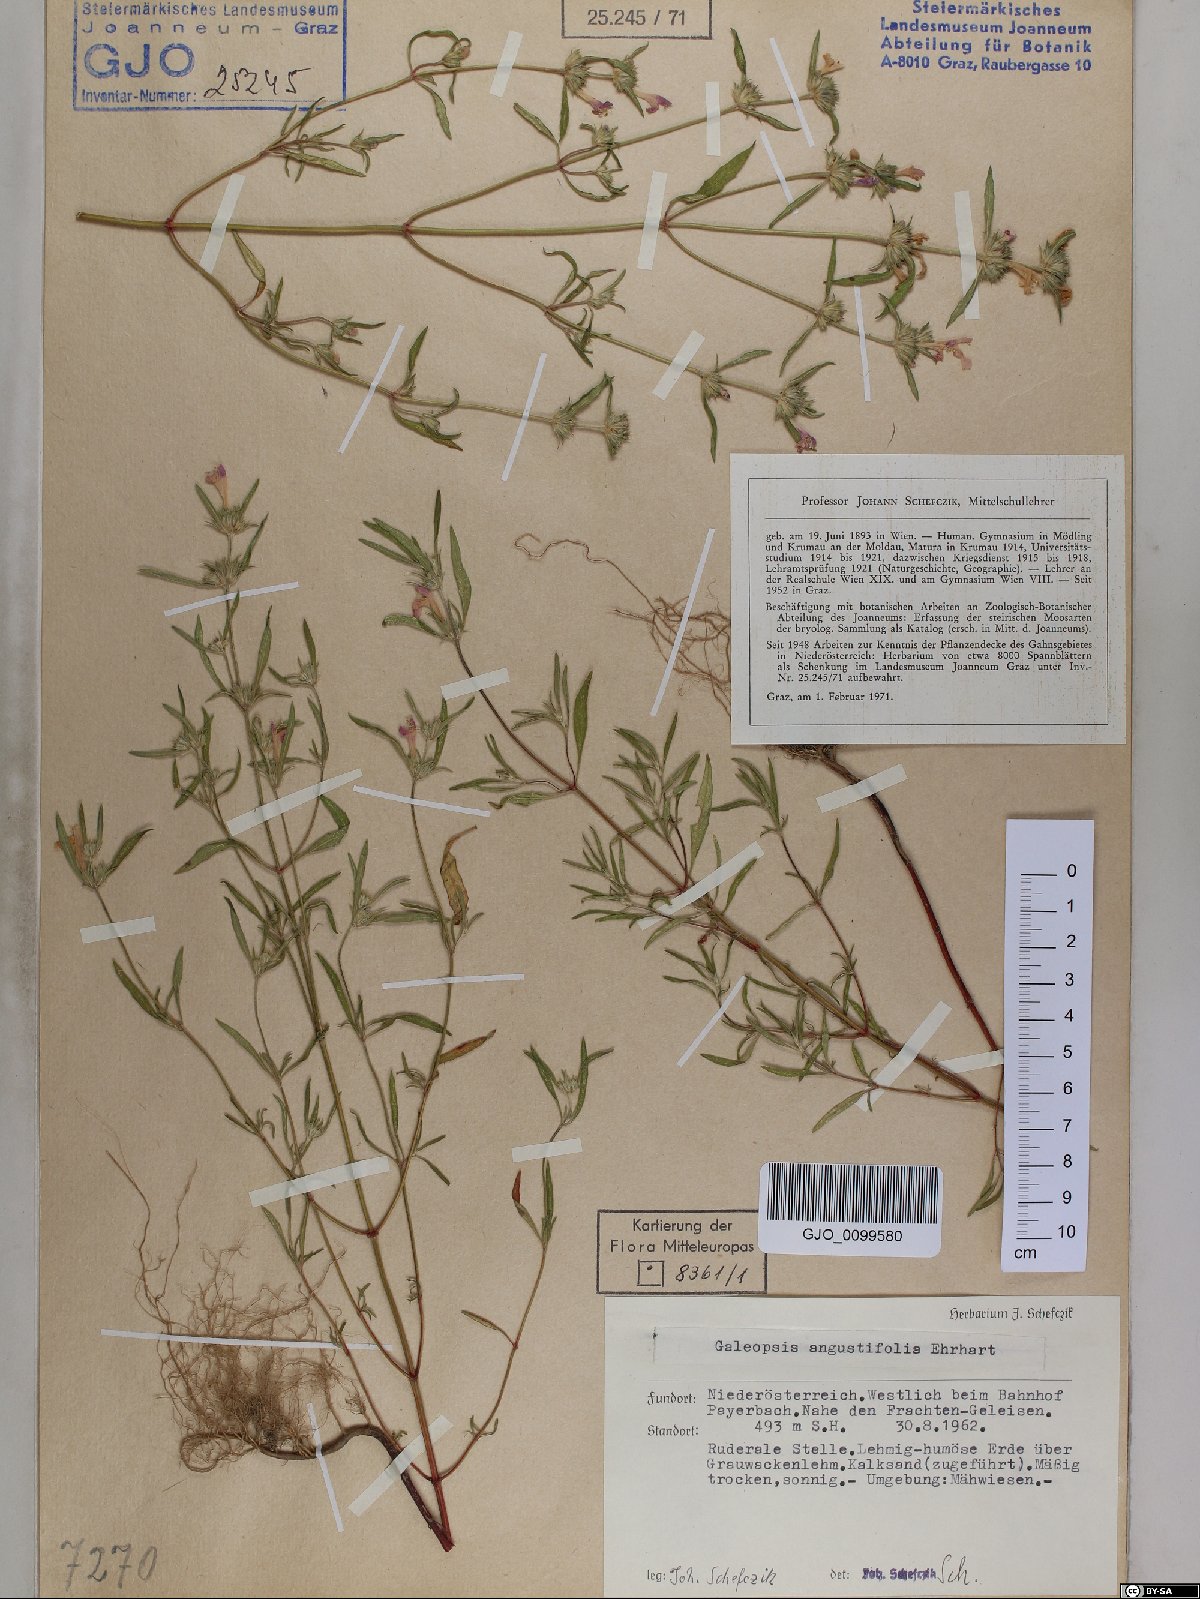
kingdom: Plantae
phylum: Tracheophyta
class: Magnoliopsida
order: Lamiales
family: Lamiaceae
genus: Galeopsis
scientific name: Galeopsis angustifolia
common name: Red hemp-nettle
